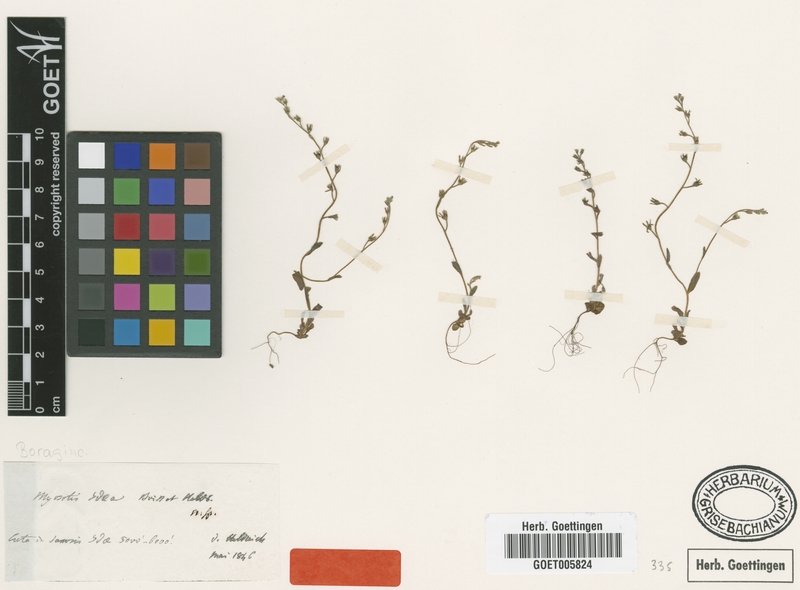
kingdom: Plantae
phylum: Tracheophyta
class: Magnoliopsida
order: Boraginales
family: Boraginaceae
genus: Myosotis
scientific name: Myosotis incrassata
